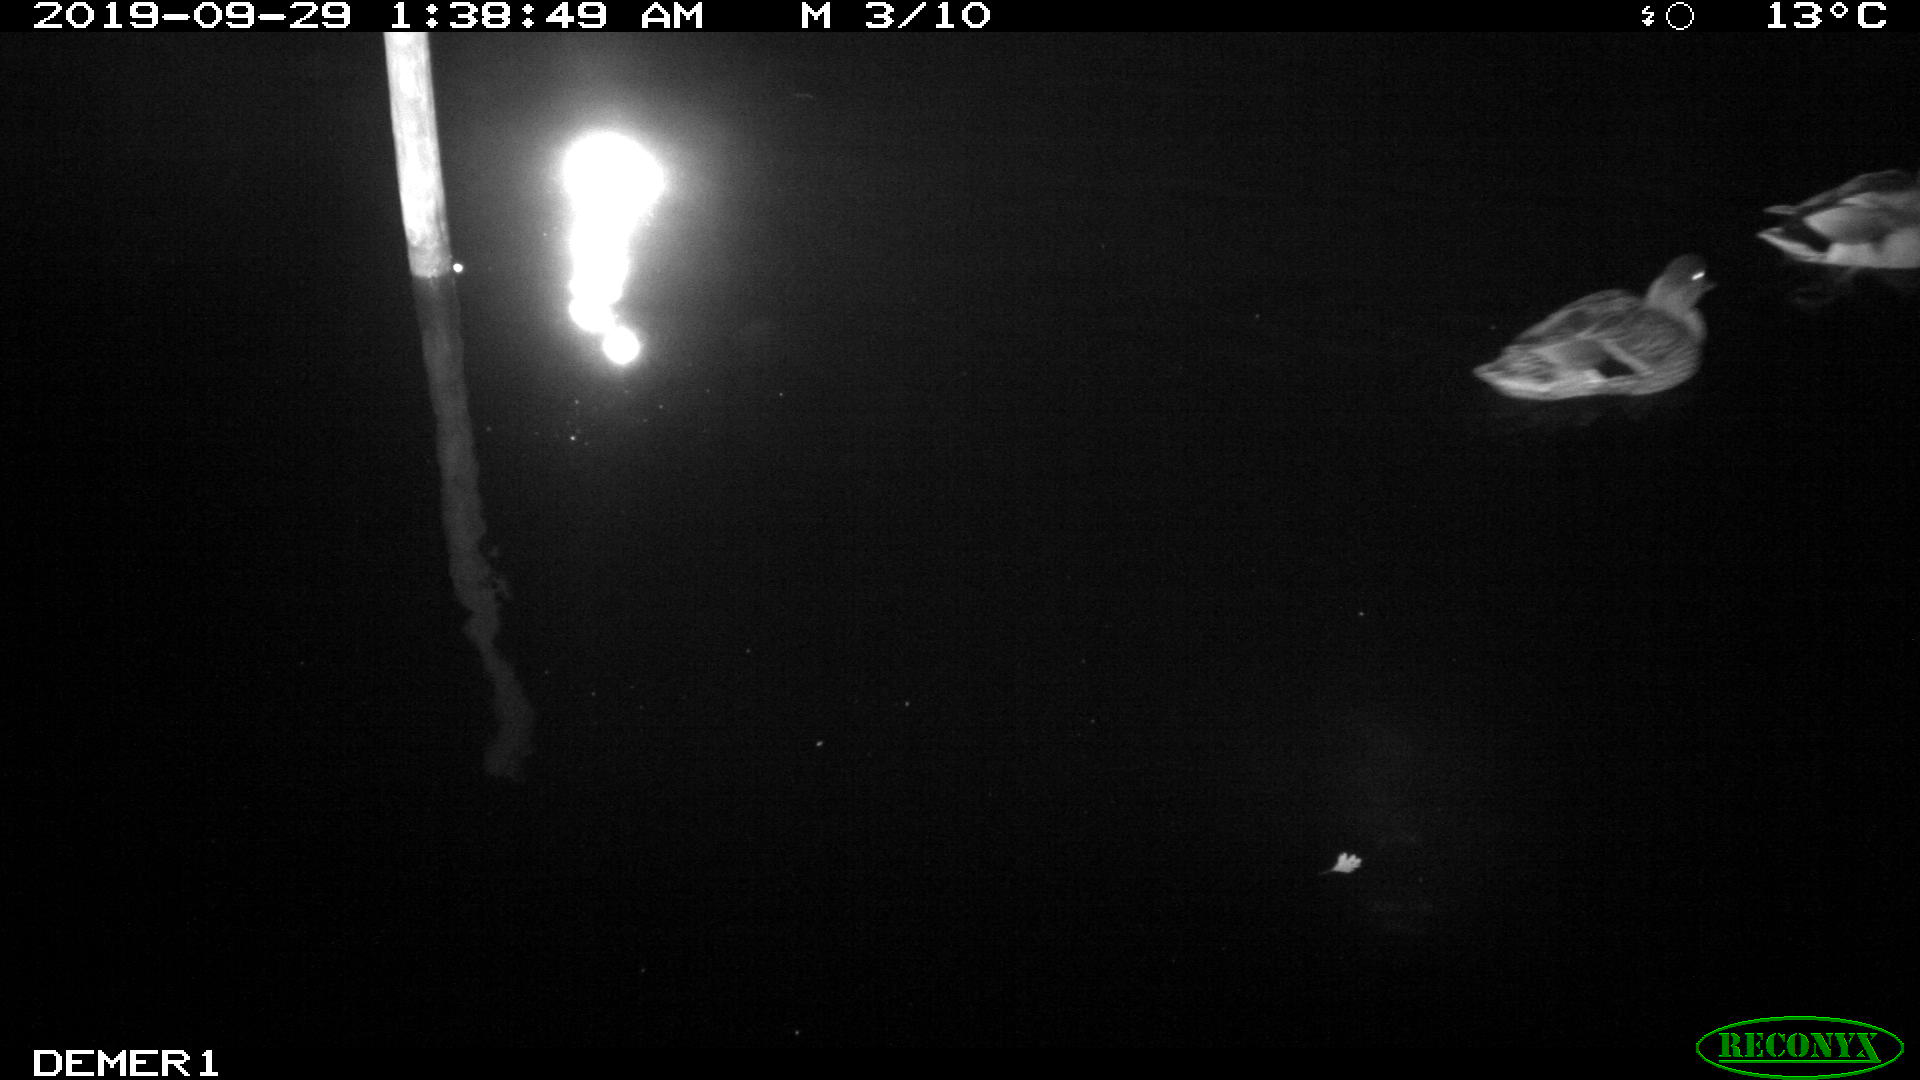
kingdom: Animalia
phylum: Chordata
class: Aves
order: Anseriformes
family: Anatidae
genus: Anas
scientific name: Anas platyrhynchos
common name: Mallard
